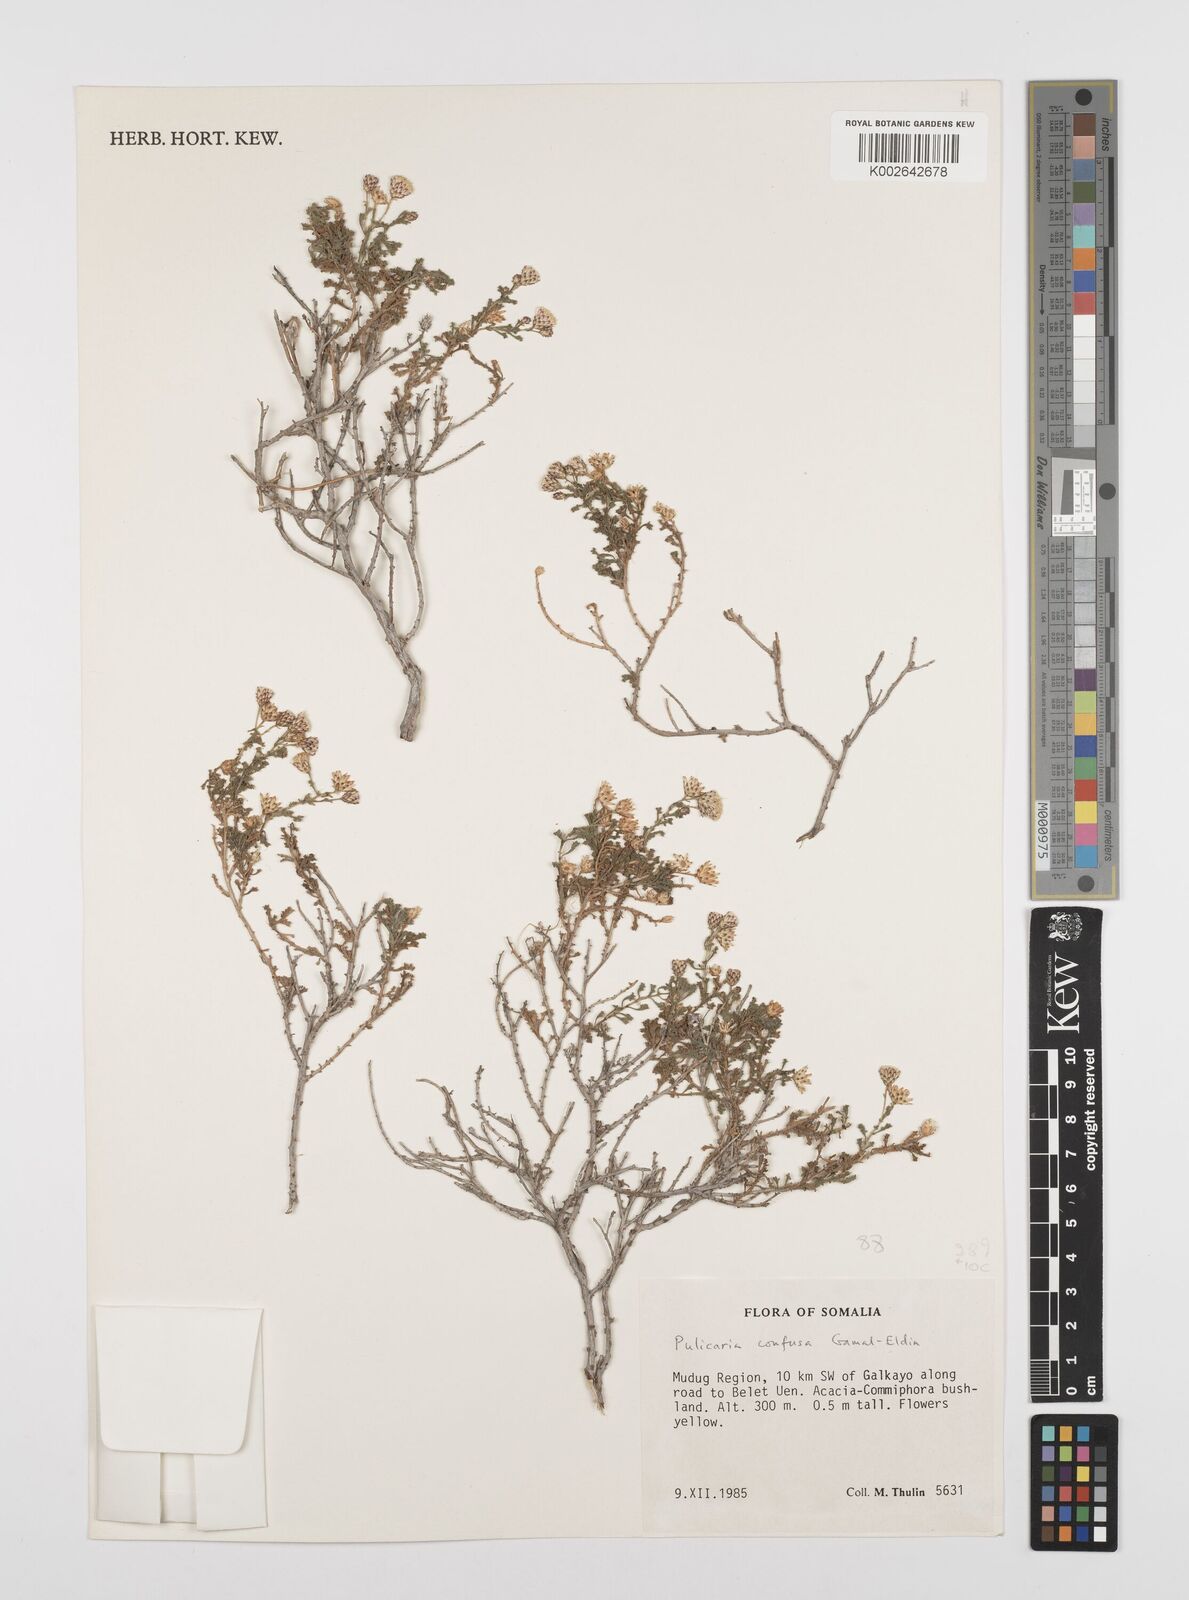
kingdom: Plantae
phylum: Tracheophyta
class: Magnoliopsida
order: Asterales
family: Asteraceae
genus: Pulicaria
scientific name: Pulicaria confusa
